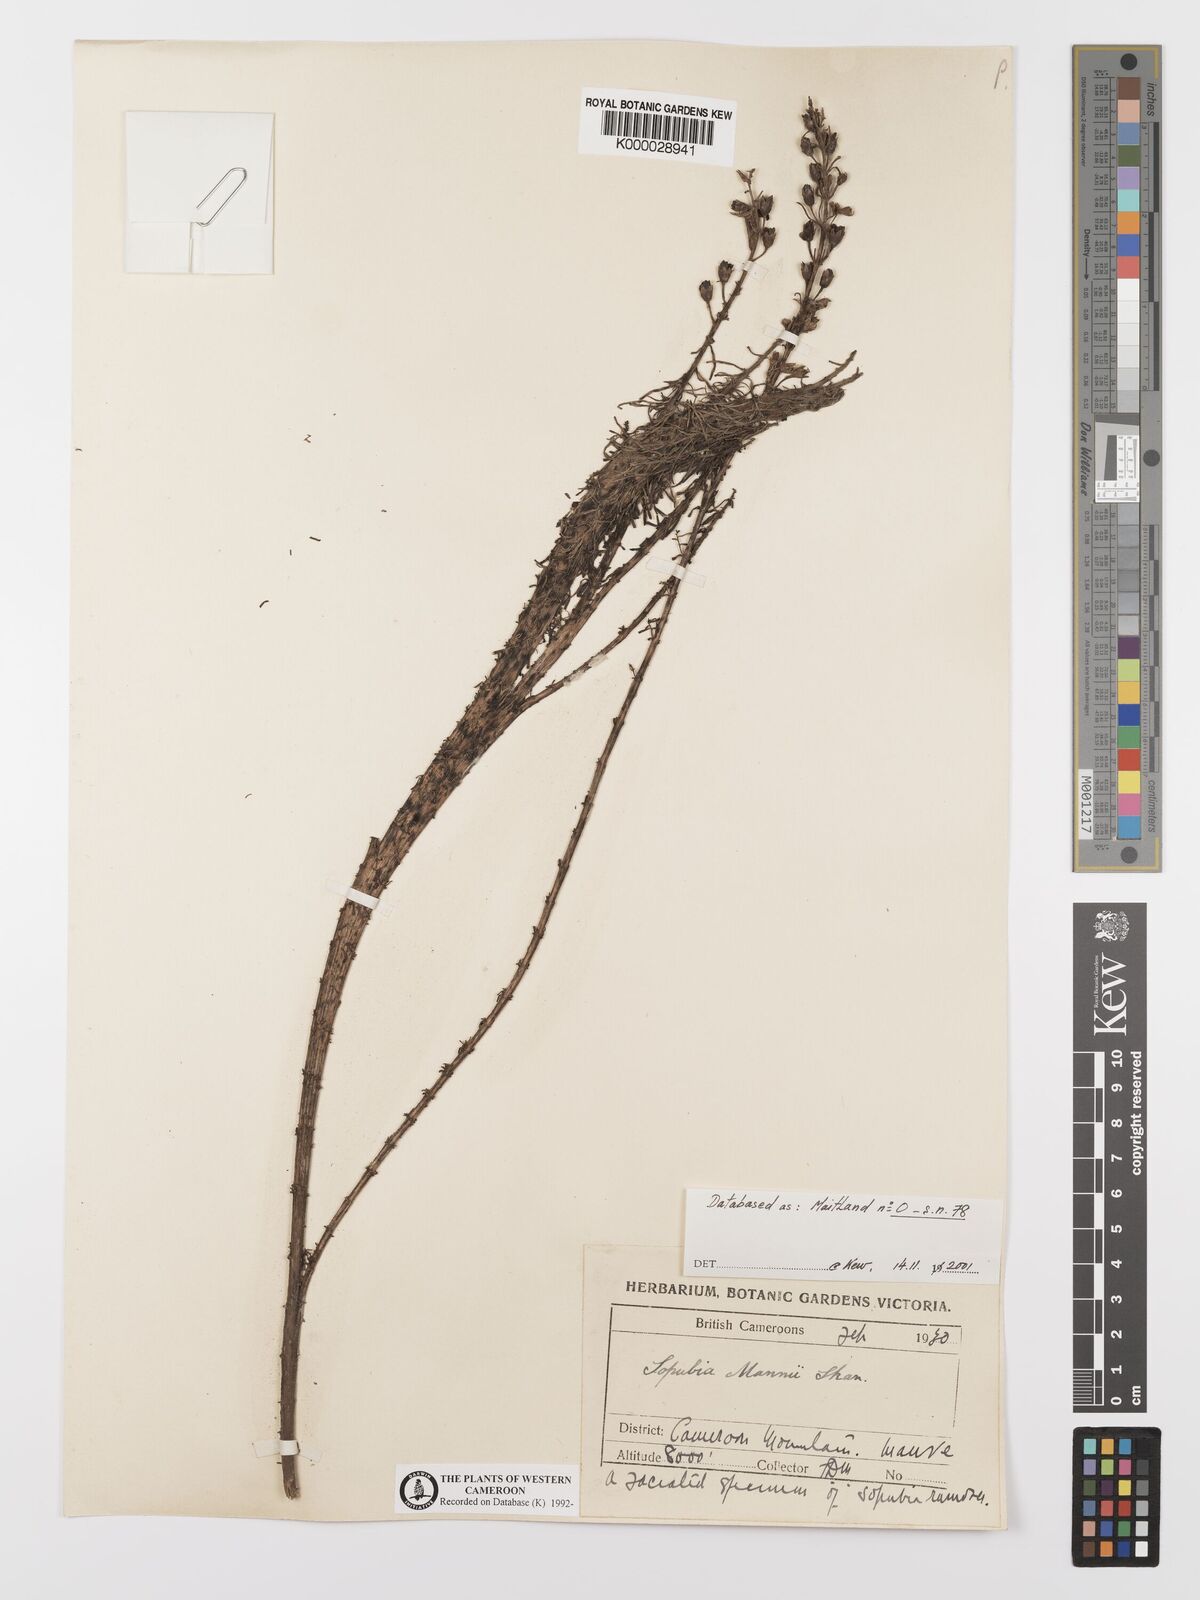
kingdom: Plantae
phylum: Tracheophyta
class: Magnoliopsida
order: Lamiales
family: Orobanchaceae
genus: Sopubia
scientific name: Sopubia mannii
